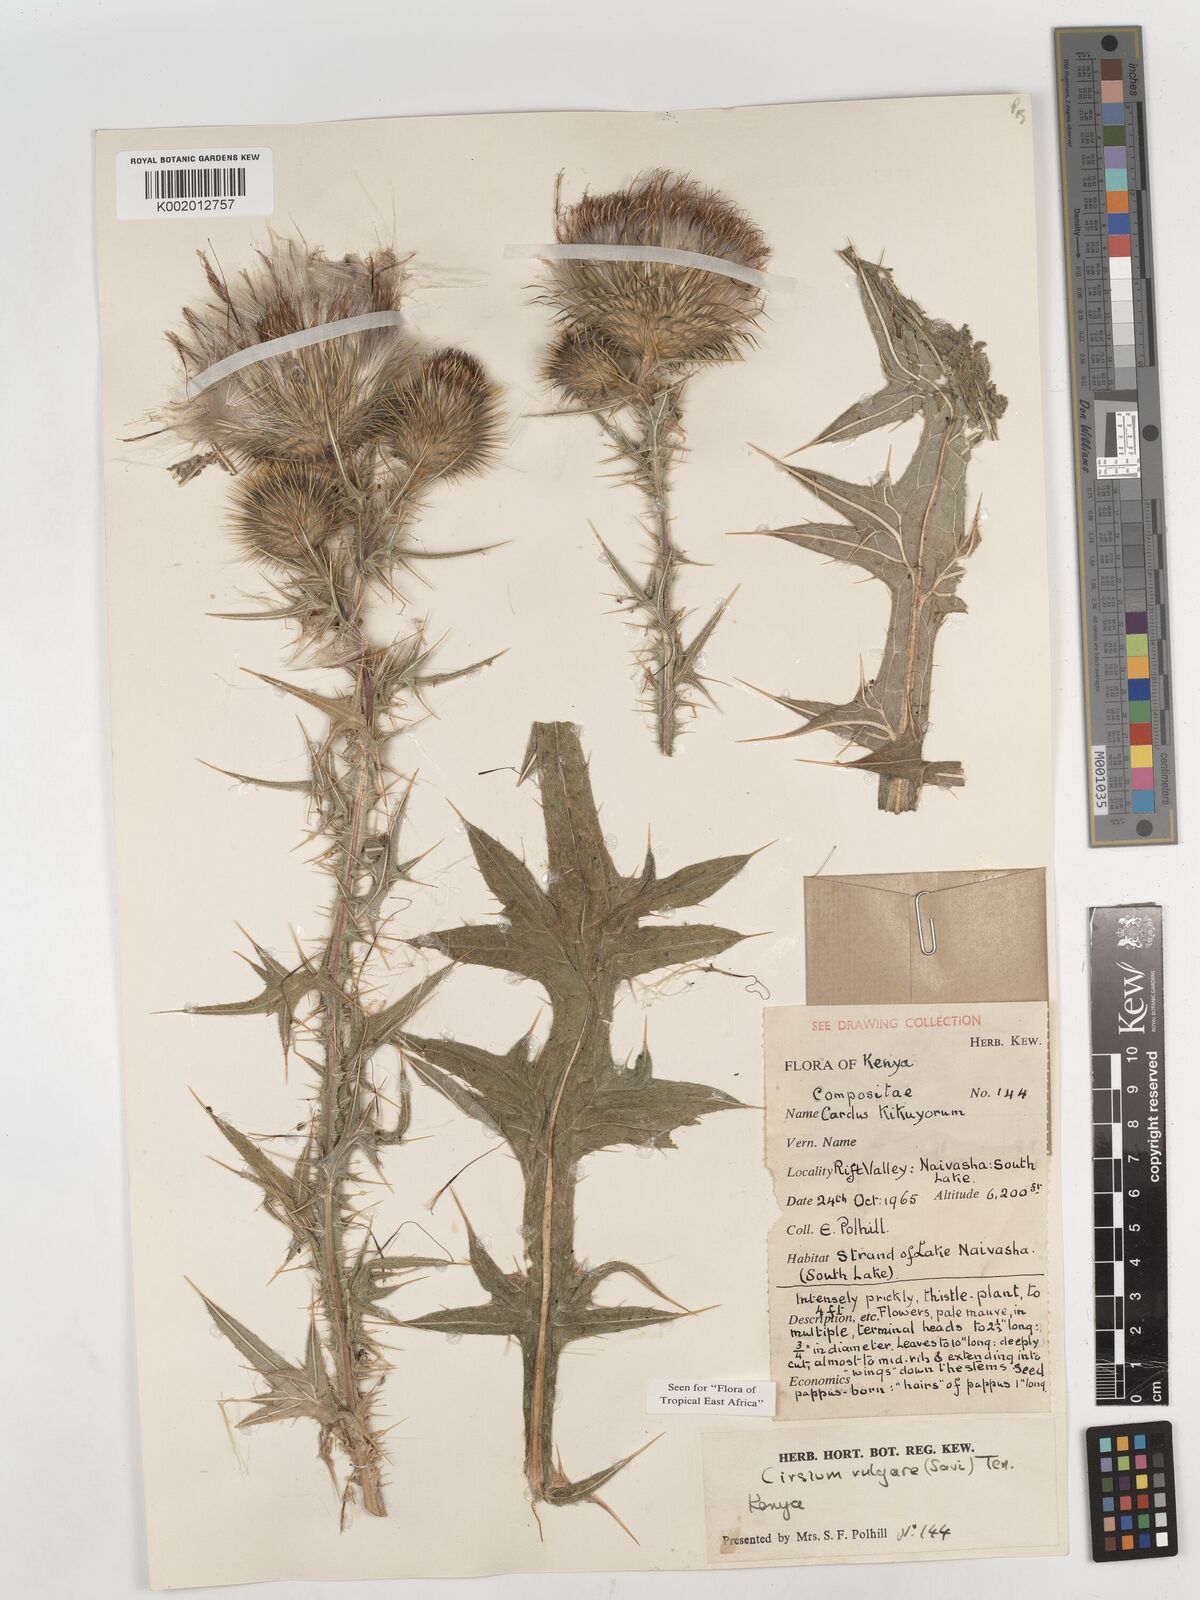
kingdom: Plantae
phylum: Tracheophyta
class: Magnoliopsida
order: Asterales
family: Asteraceae
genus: Cirsium
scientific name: Cirsium vulgare
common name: Bull thistle
